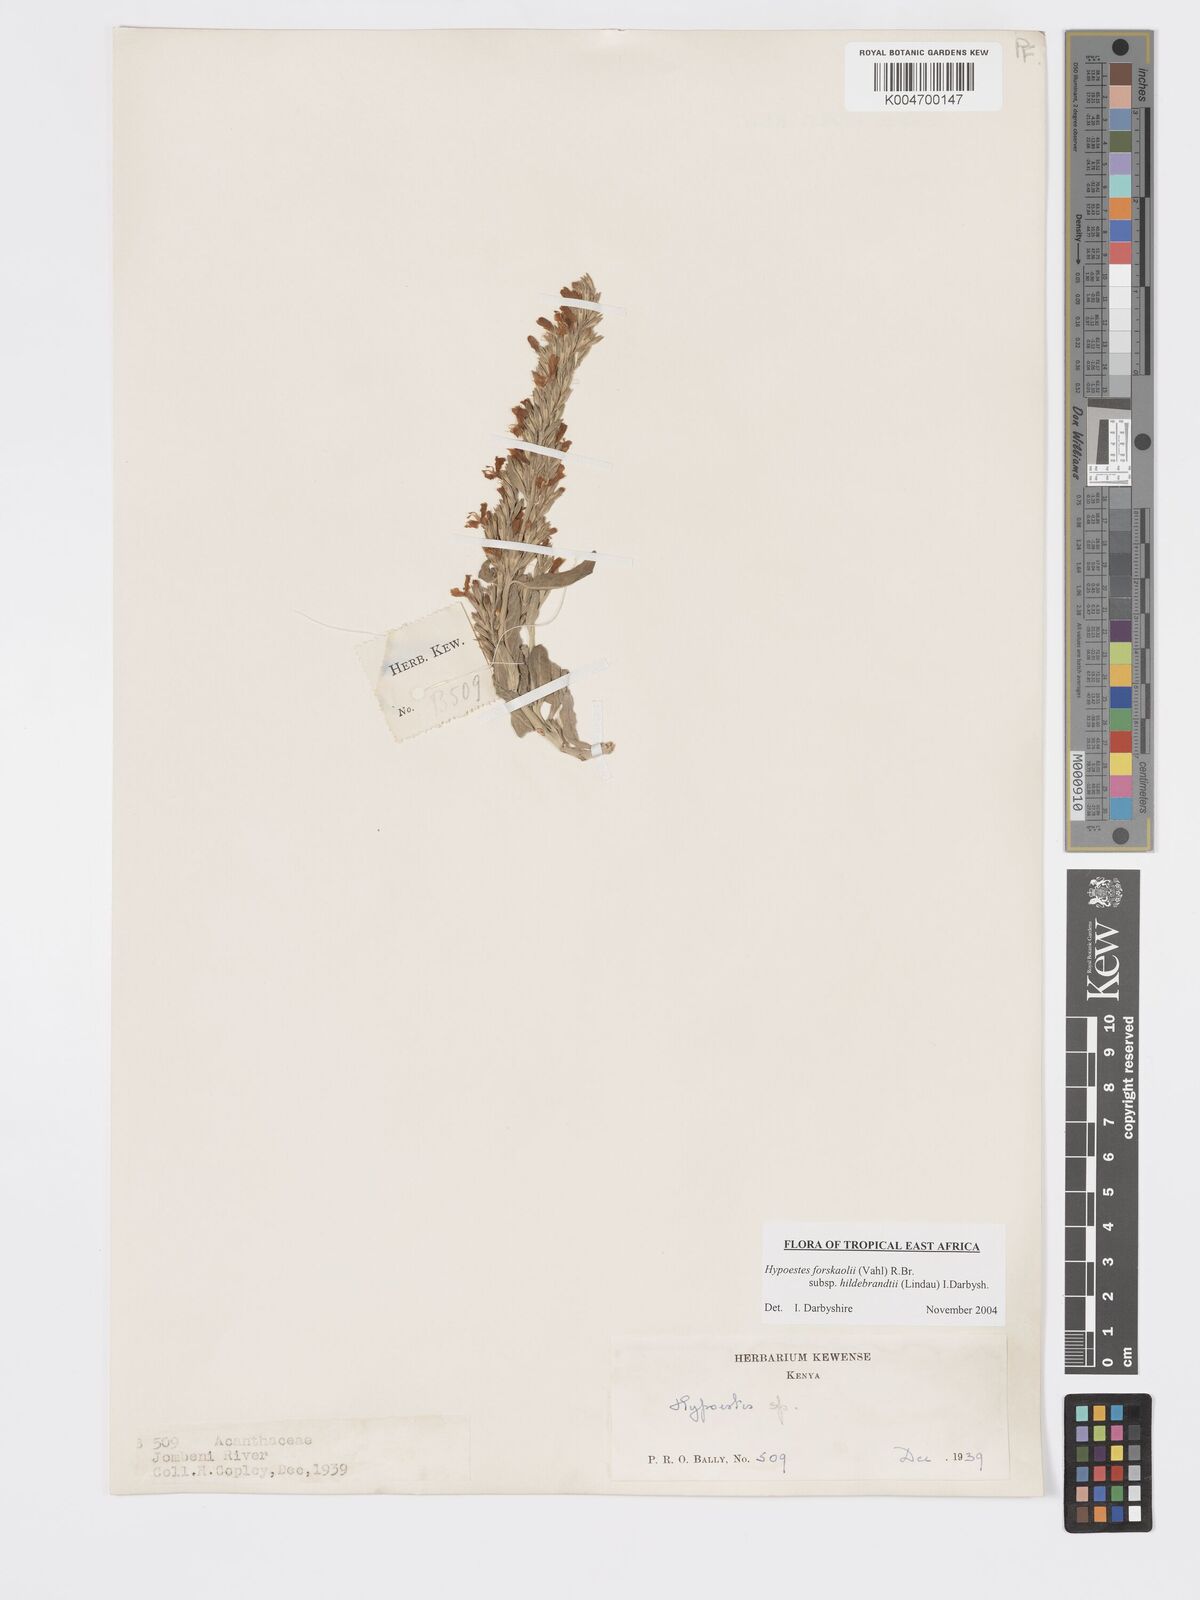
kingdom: Plantae
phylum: Tracheophyta
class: Magnoliopsida
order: Lamiales
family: Acanthaceae
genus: Hypoestes
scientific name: Hypoestes forskaolii
